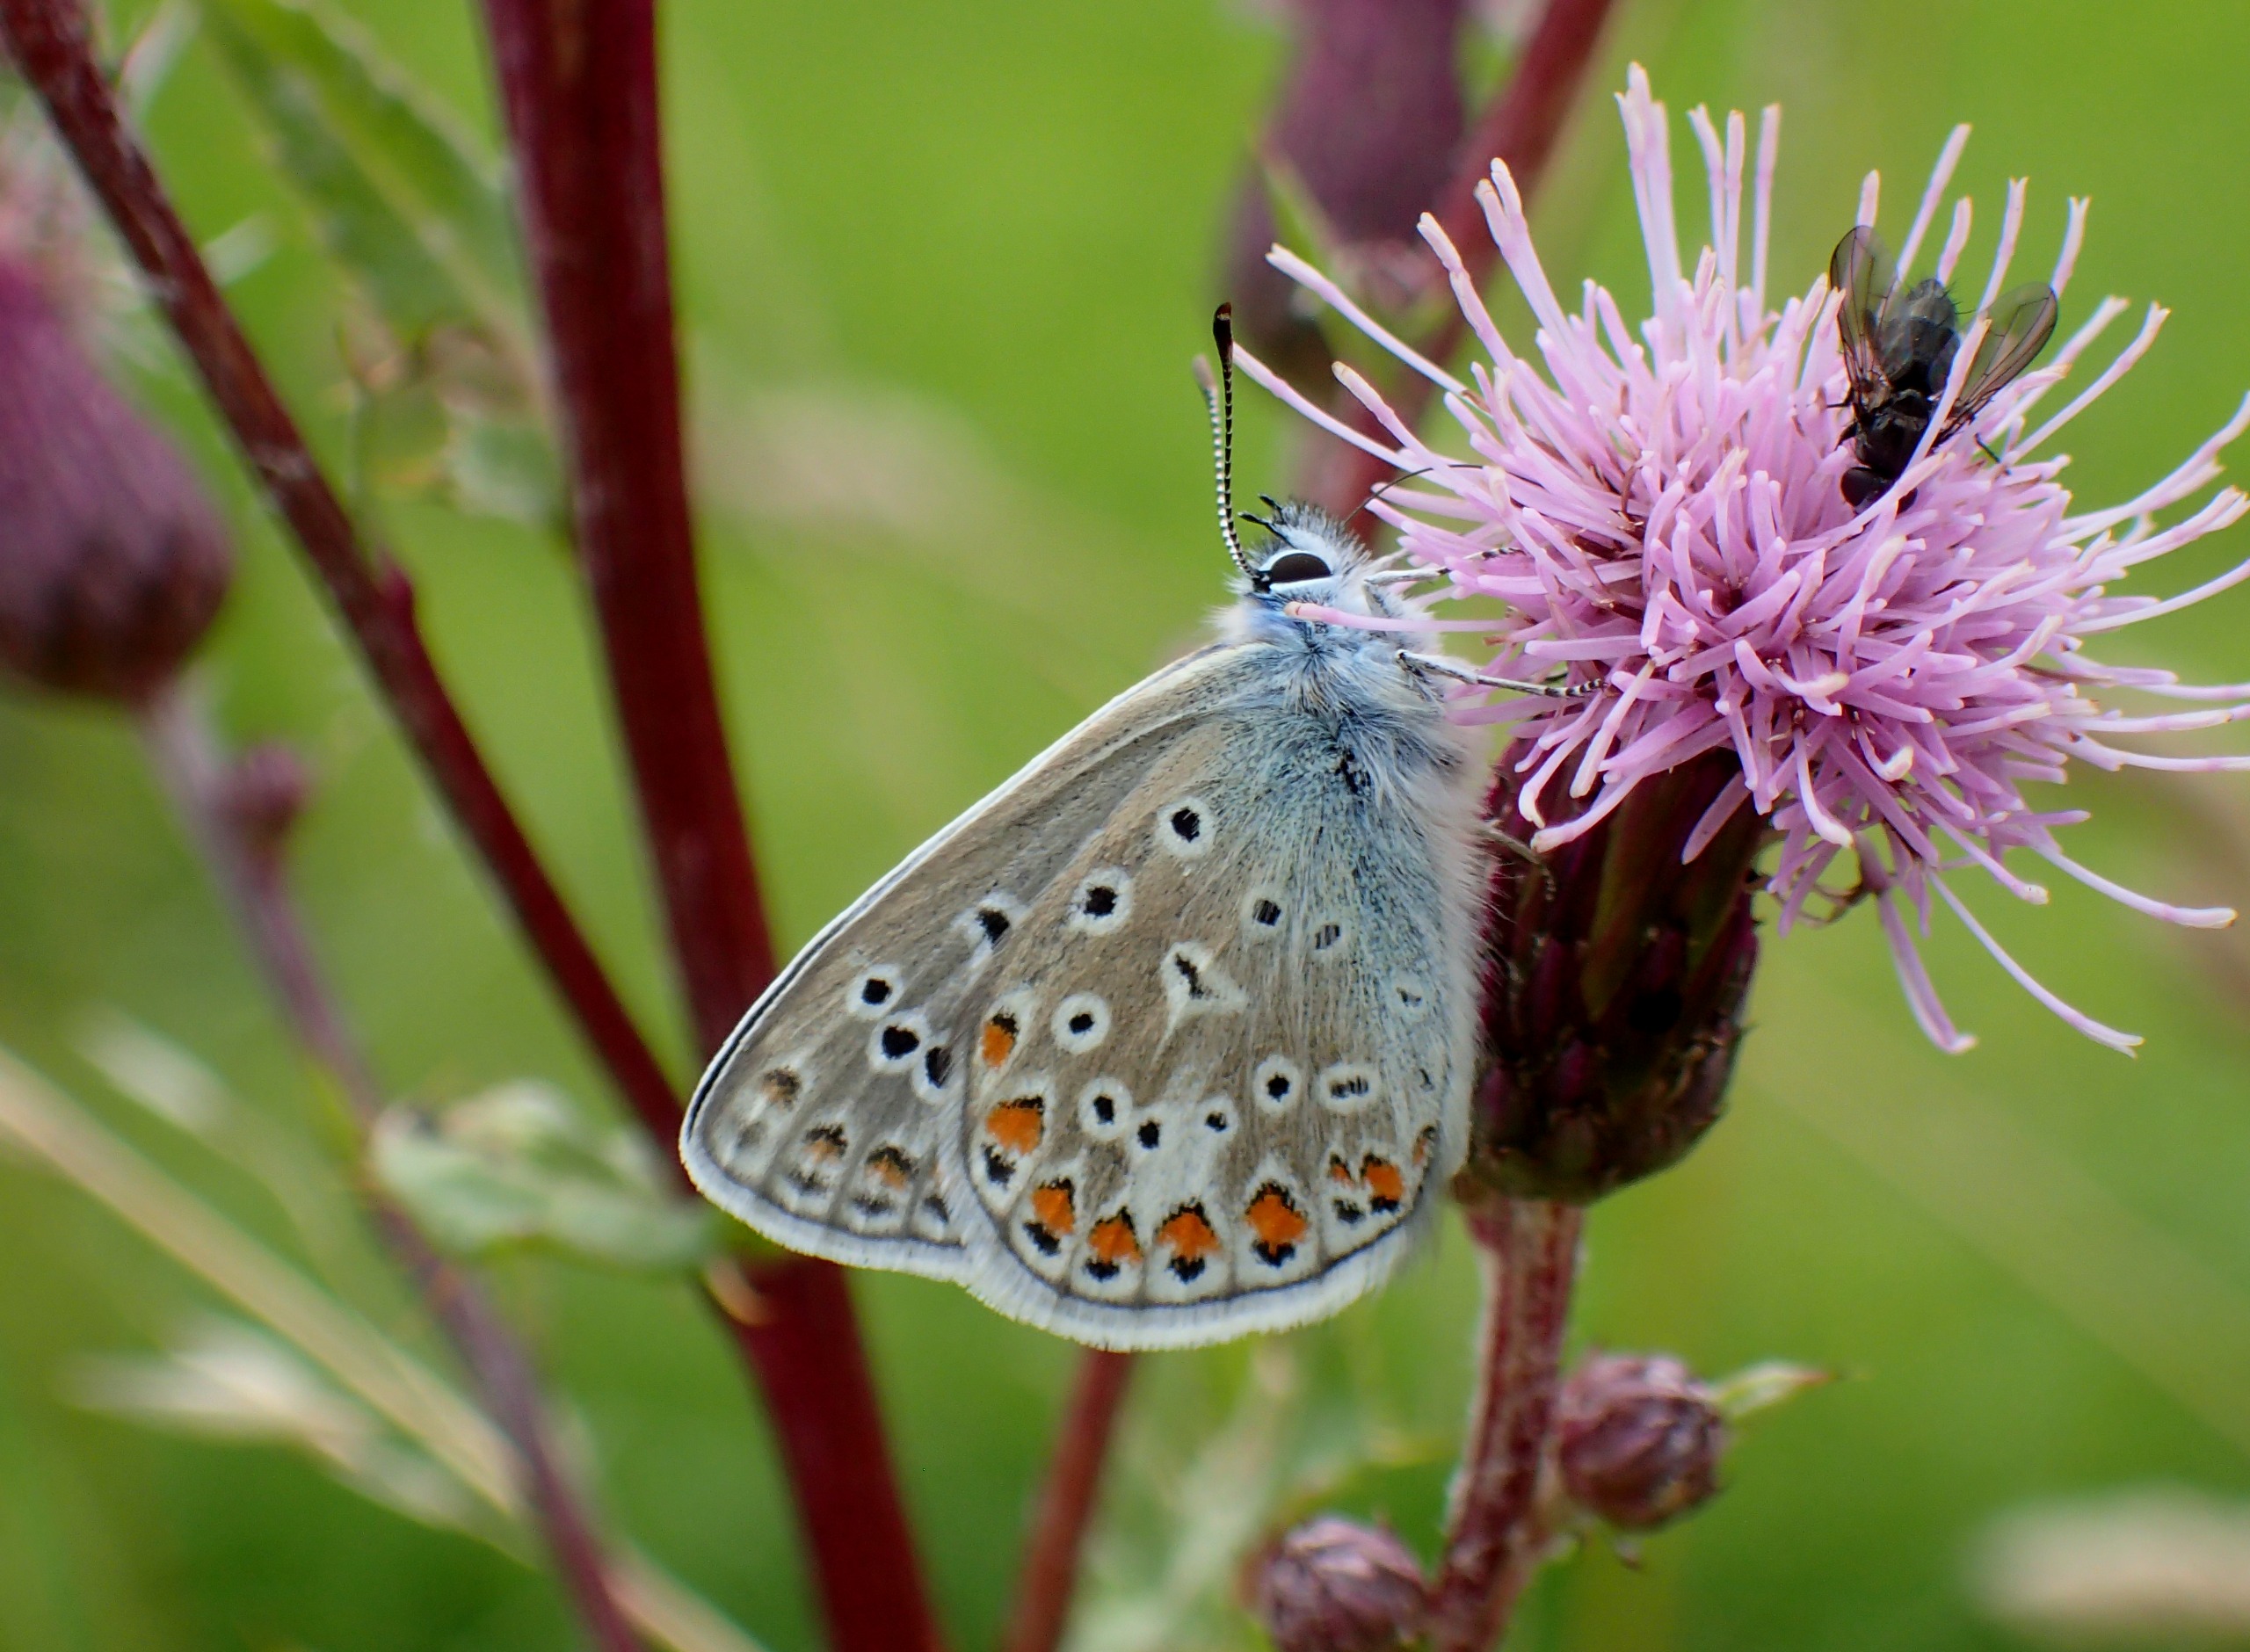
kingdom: Animalia
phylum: Arthropoda
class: Insecta
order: Lepidoptera
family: Lycaenidae
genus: Polyommatus
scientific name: Polyommatus icarus
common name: Almindelig blåfugl
